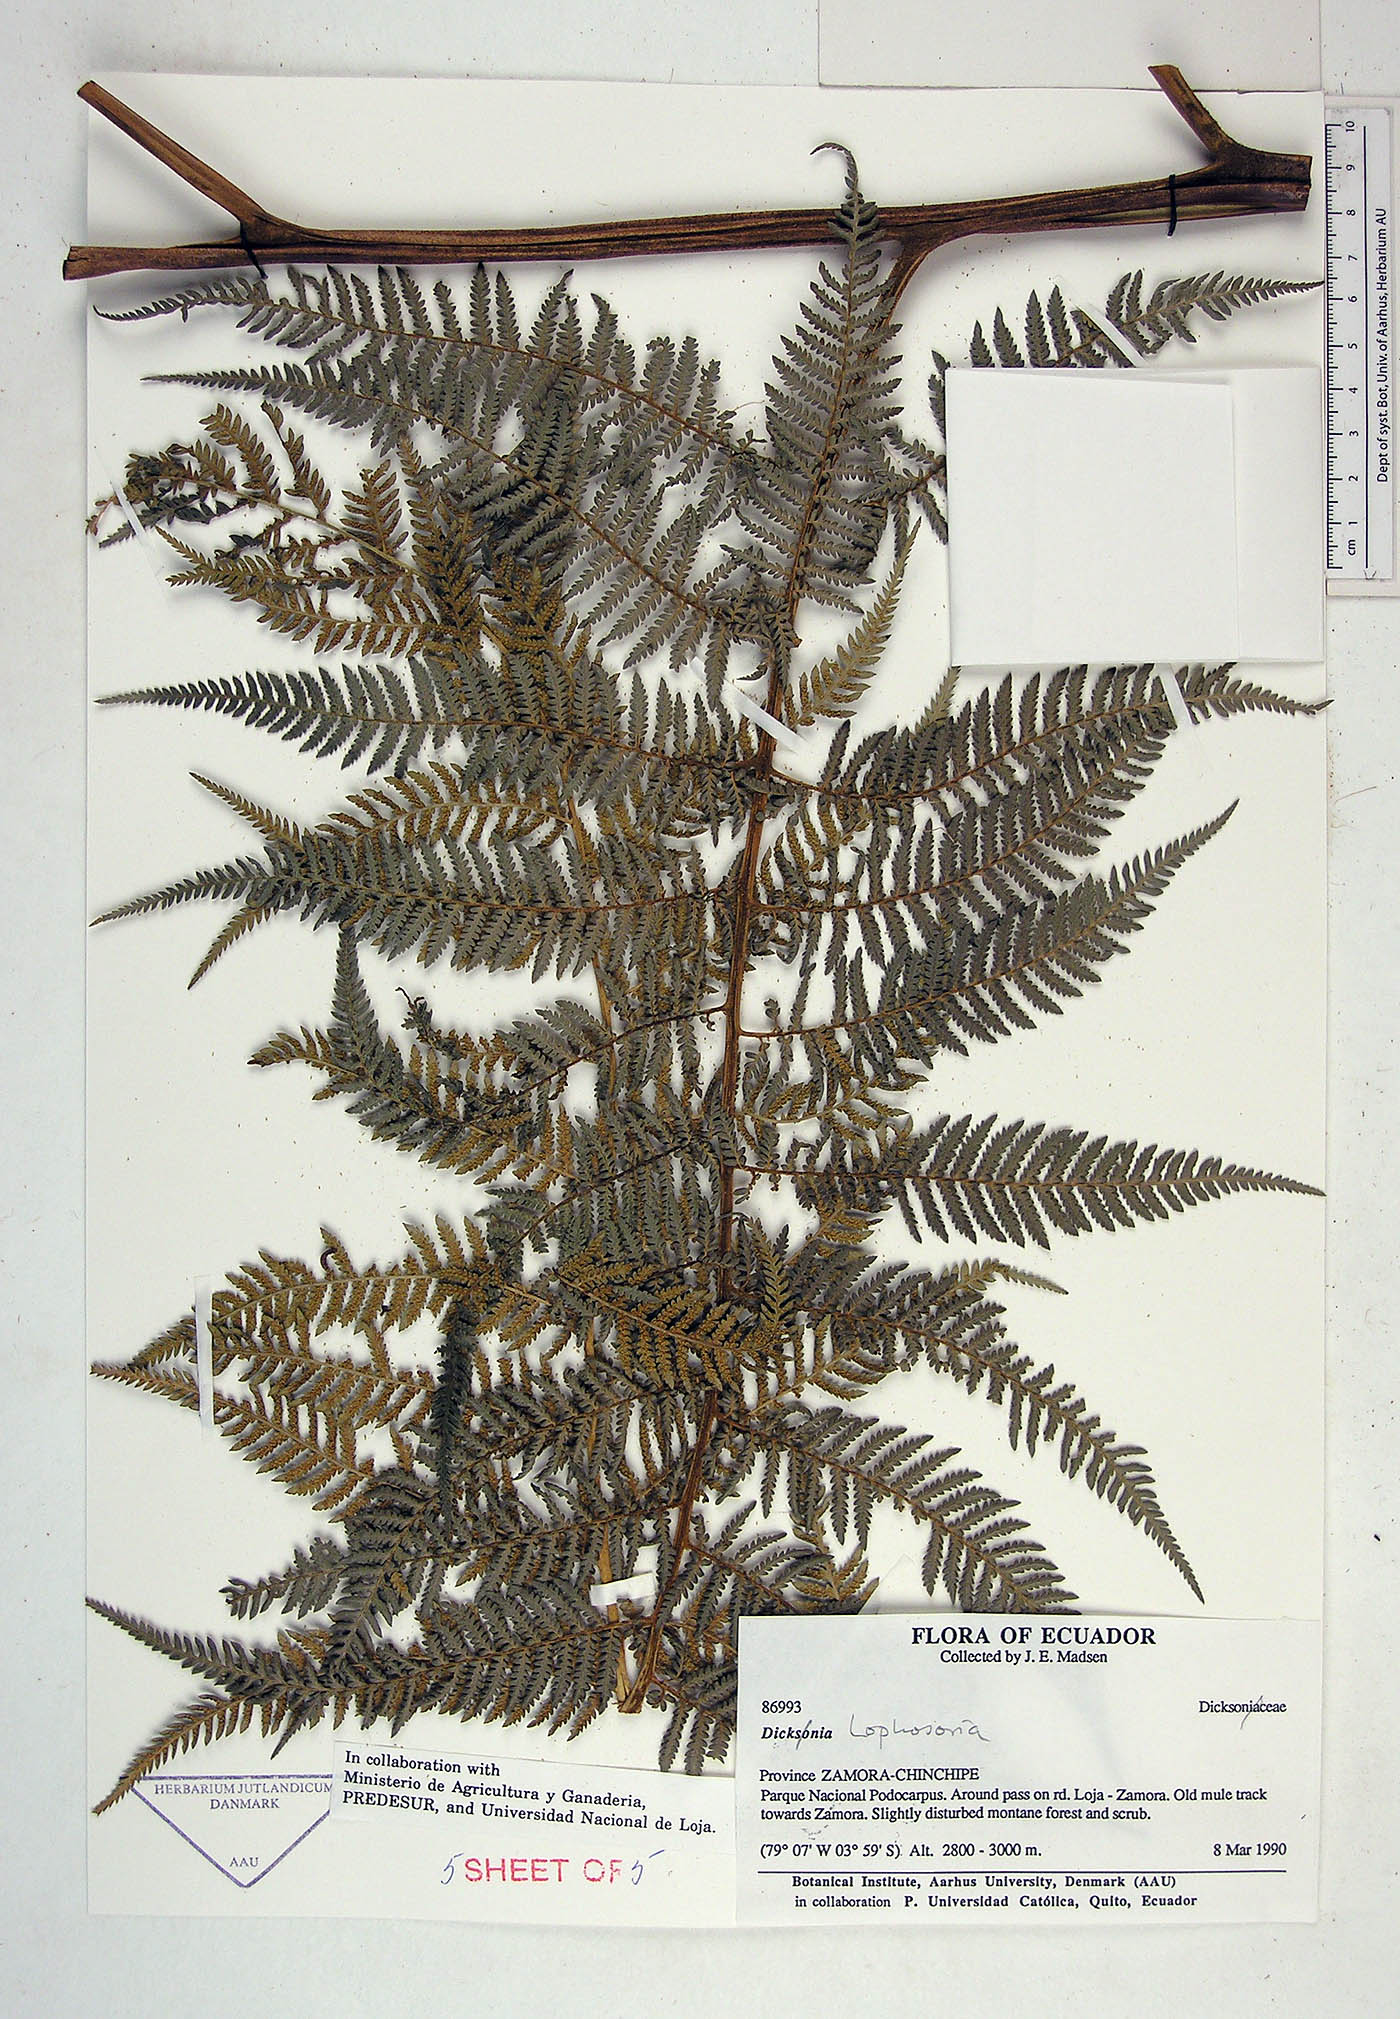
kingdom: Plantae
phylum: Tracheophyta
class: Polypodiopsida
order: Cyatheales
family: Dicksoniaceae
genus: Dicksonia
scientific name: Dicksonia
